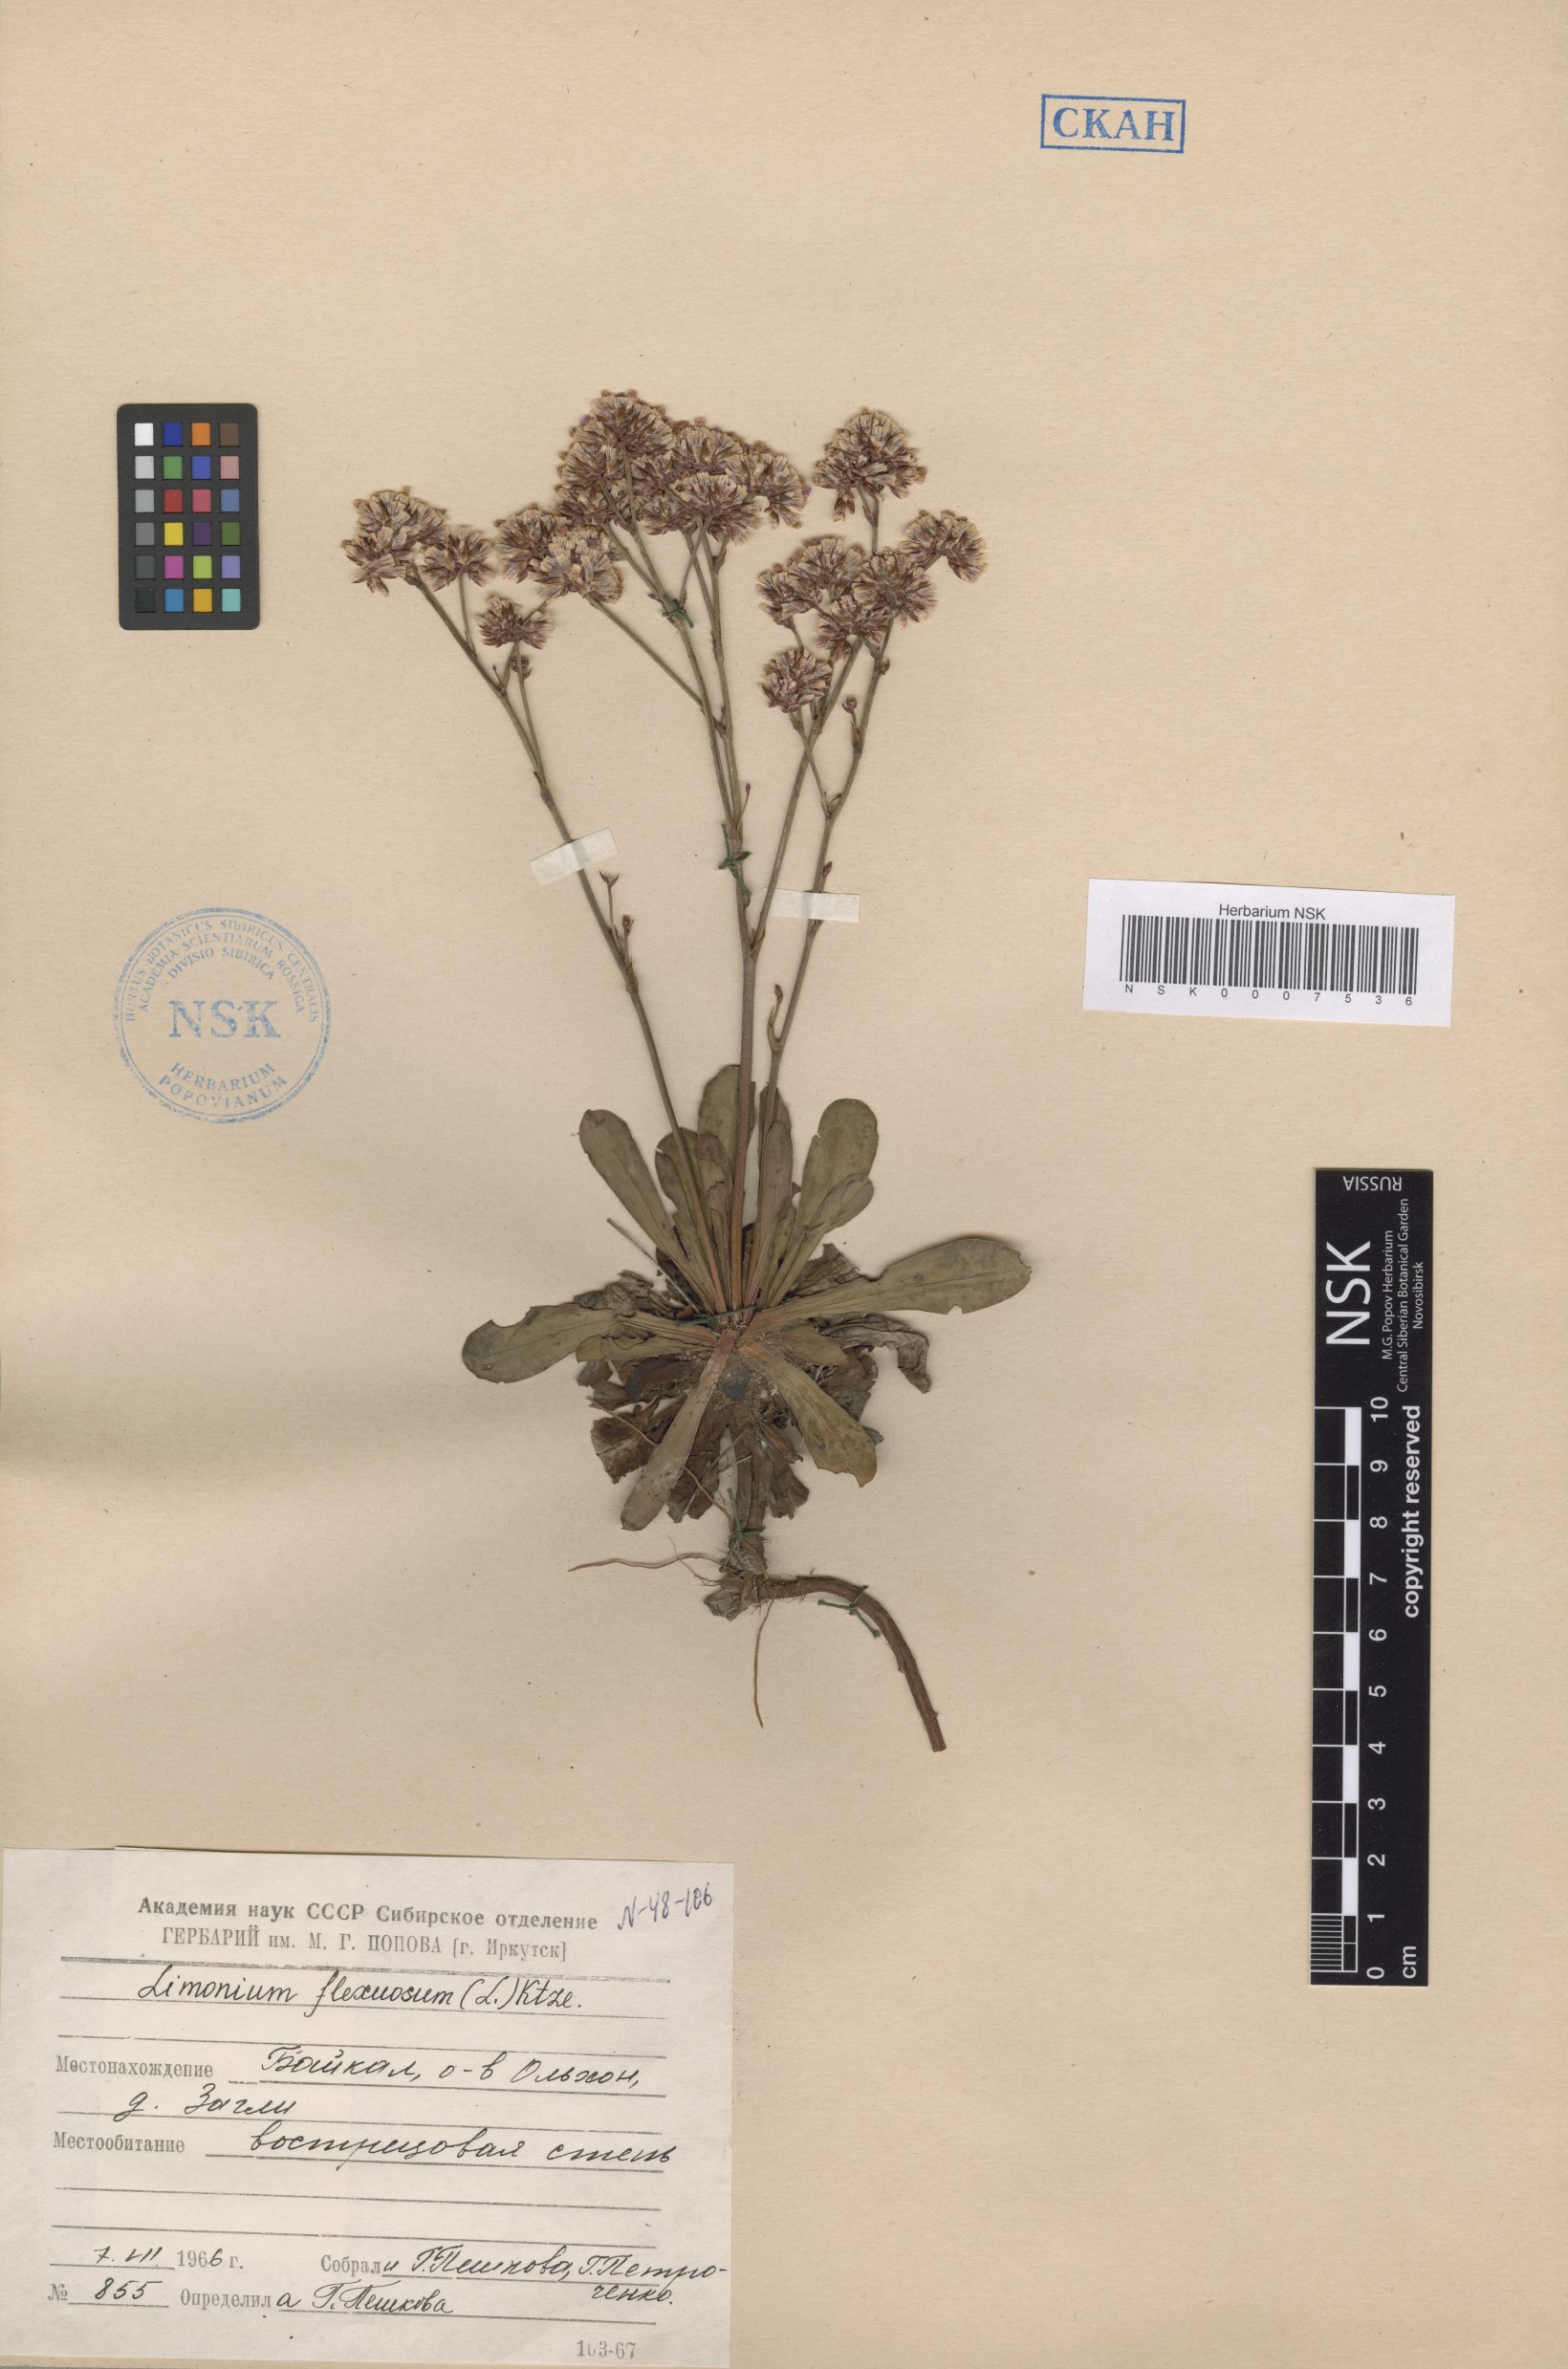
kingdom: Plantae
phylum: Tracheophyta
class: Magnoliopsida
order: Caryophyllales
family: Plumbaginaceae
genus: Limonium
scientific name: Limonium flexuosum
